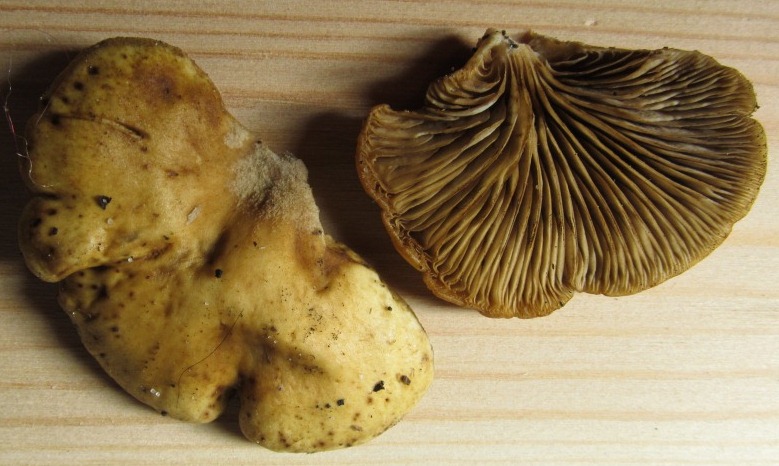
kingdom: Fungi
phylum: Basidiomycota
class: Agaricomycetes
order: Agaricales
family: Crepidotaceae
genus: Crepidotus
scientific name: Crepidotus mollis
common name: blød muslingesvamp
